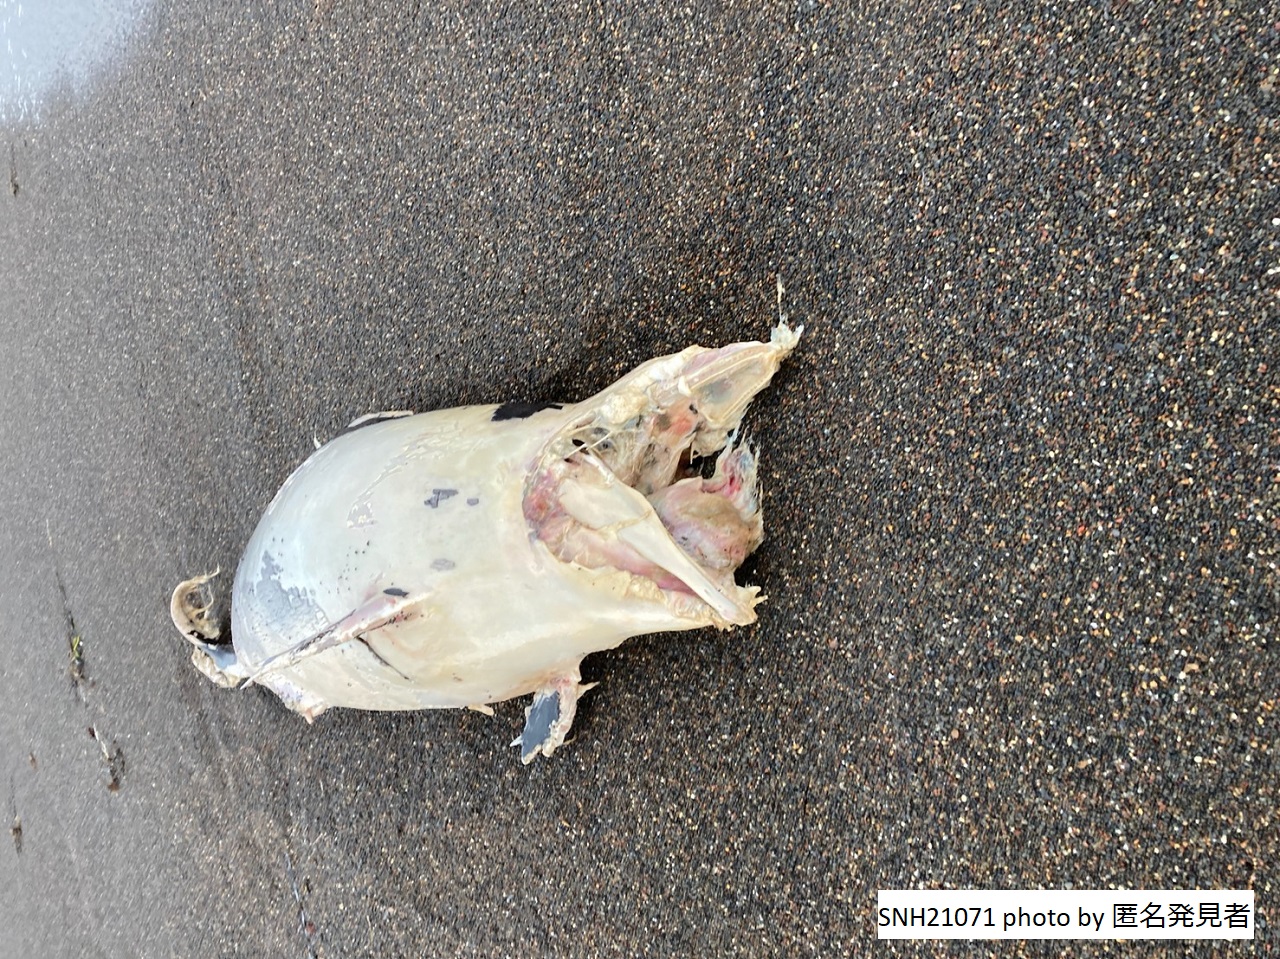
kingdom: Animalia
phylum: Chordata
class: Mammalia
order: Cetacea
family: Phocoenidae
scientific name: Phocoenidae
